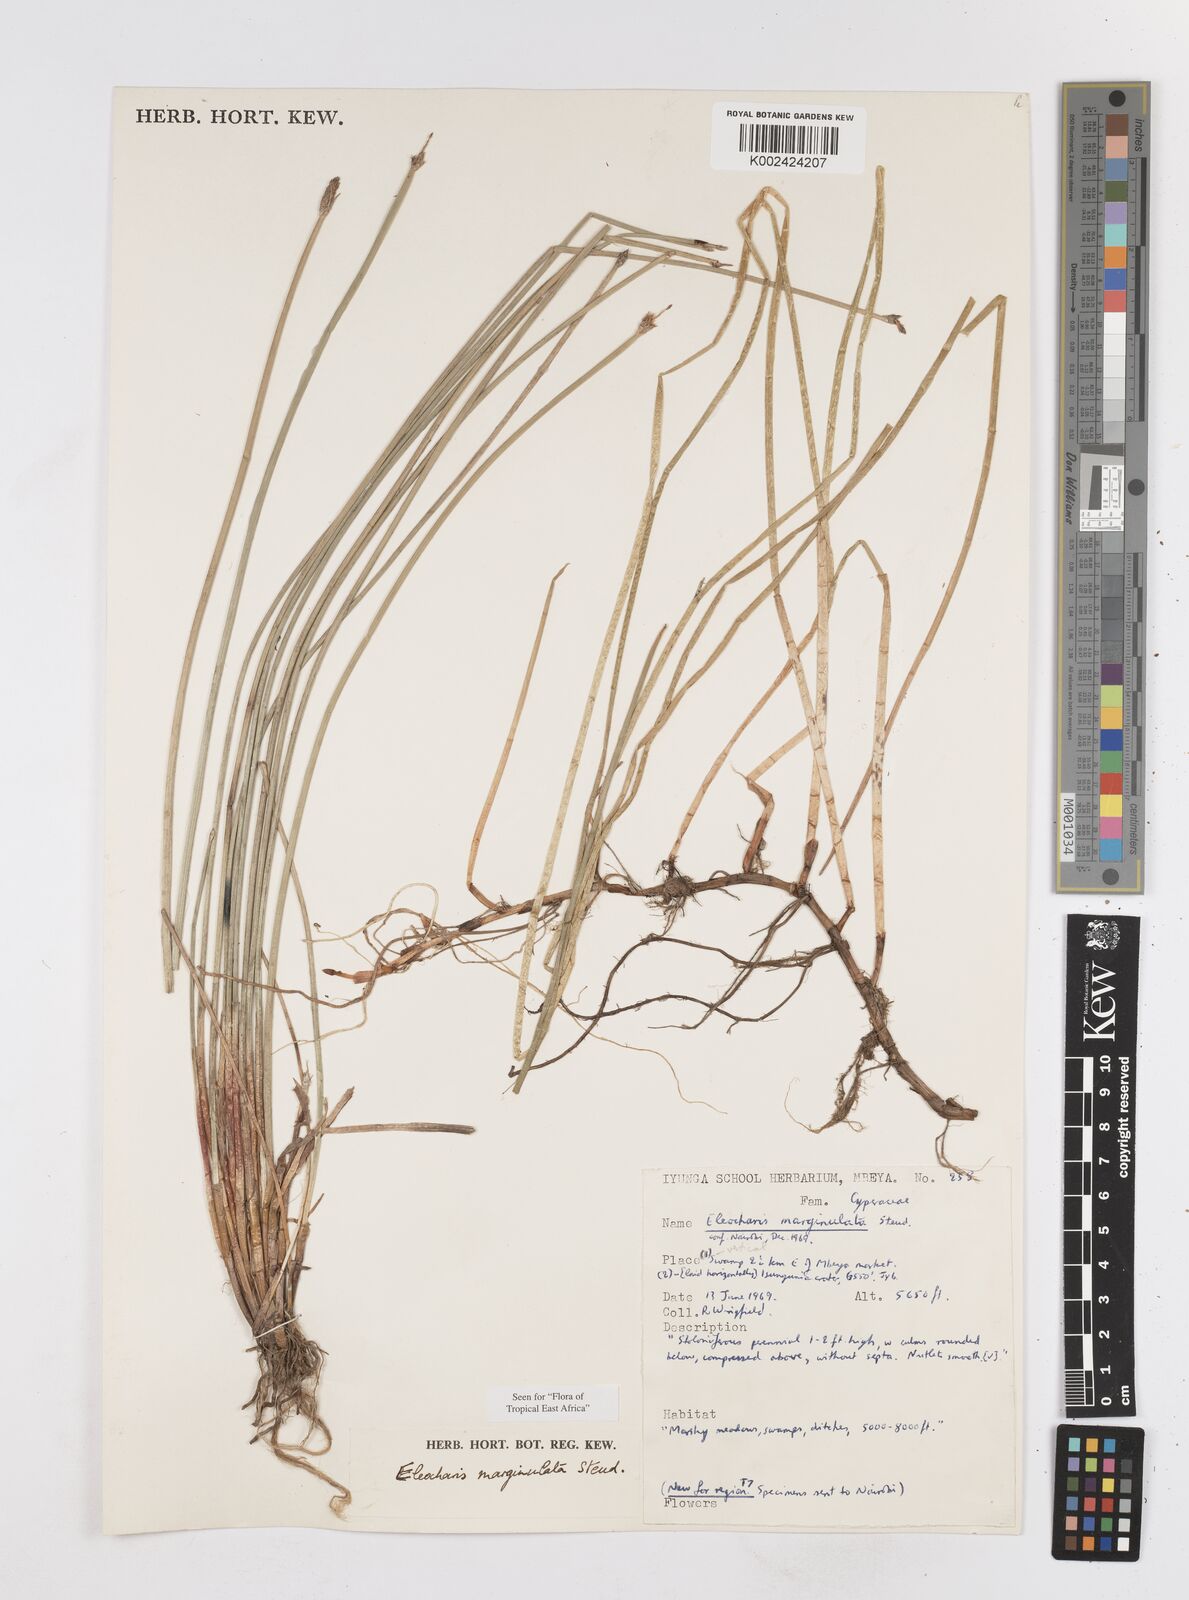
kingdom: Plantae
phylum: Tracheophyta
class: Liliopsida
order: Poales
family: Cyperaceae
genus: Eleocharis
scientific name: Eleocharis marginulata
